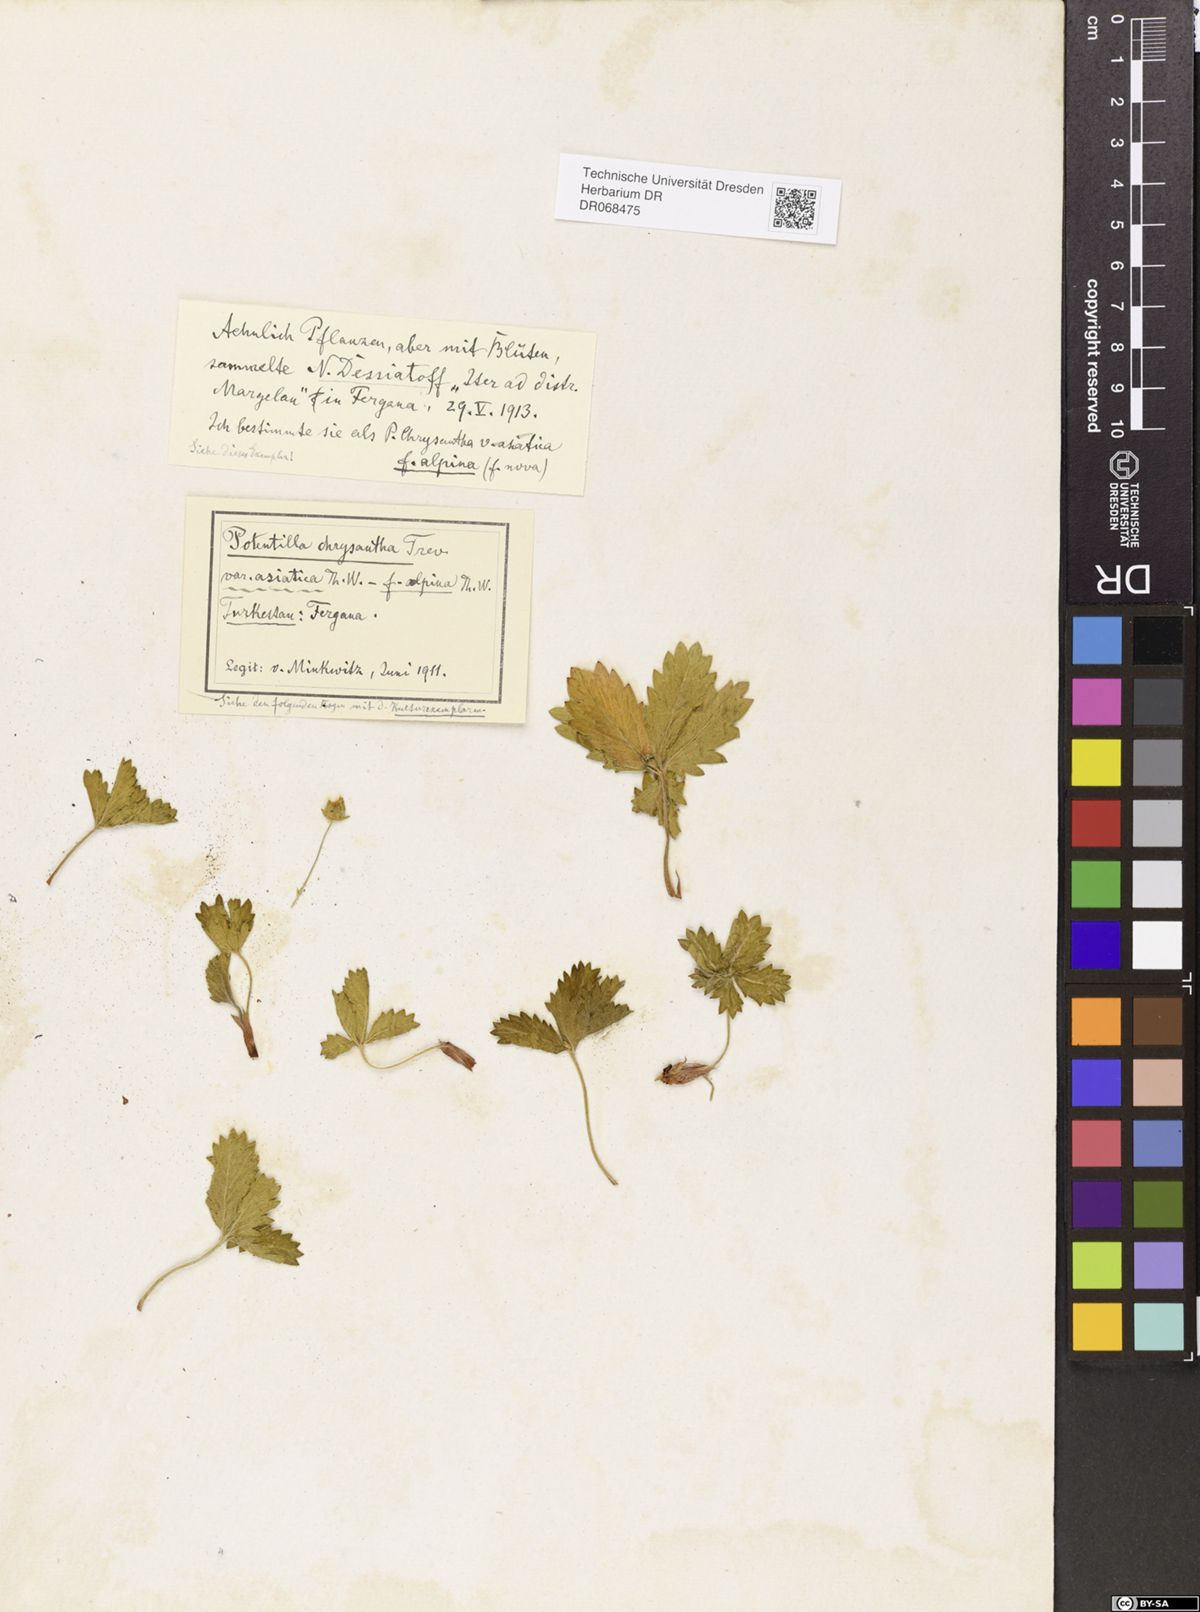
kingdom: Plantae
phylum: Tracheophyta
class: Magnoliopsida
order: Rosales
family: Rosaceae
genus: Potentilla
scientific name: Potentilla asiatica
